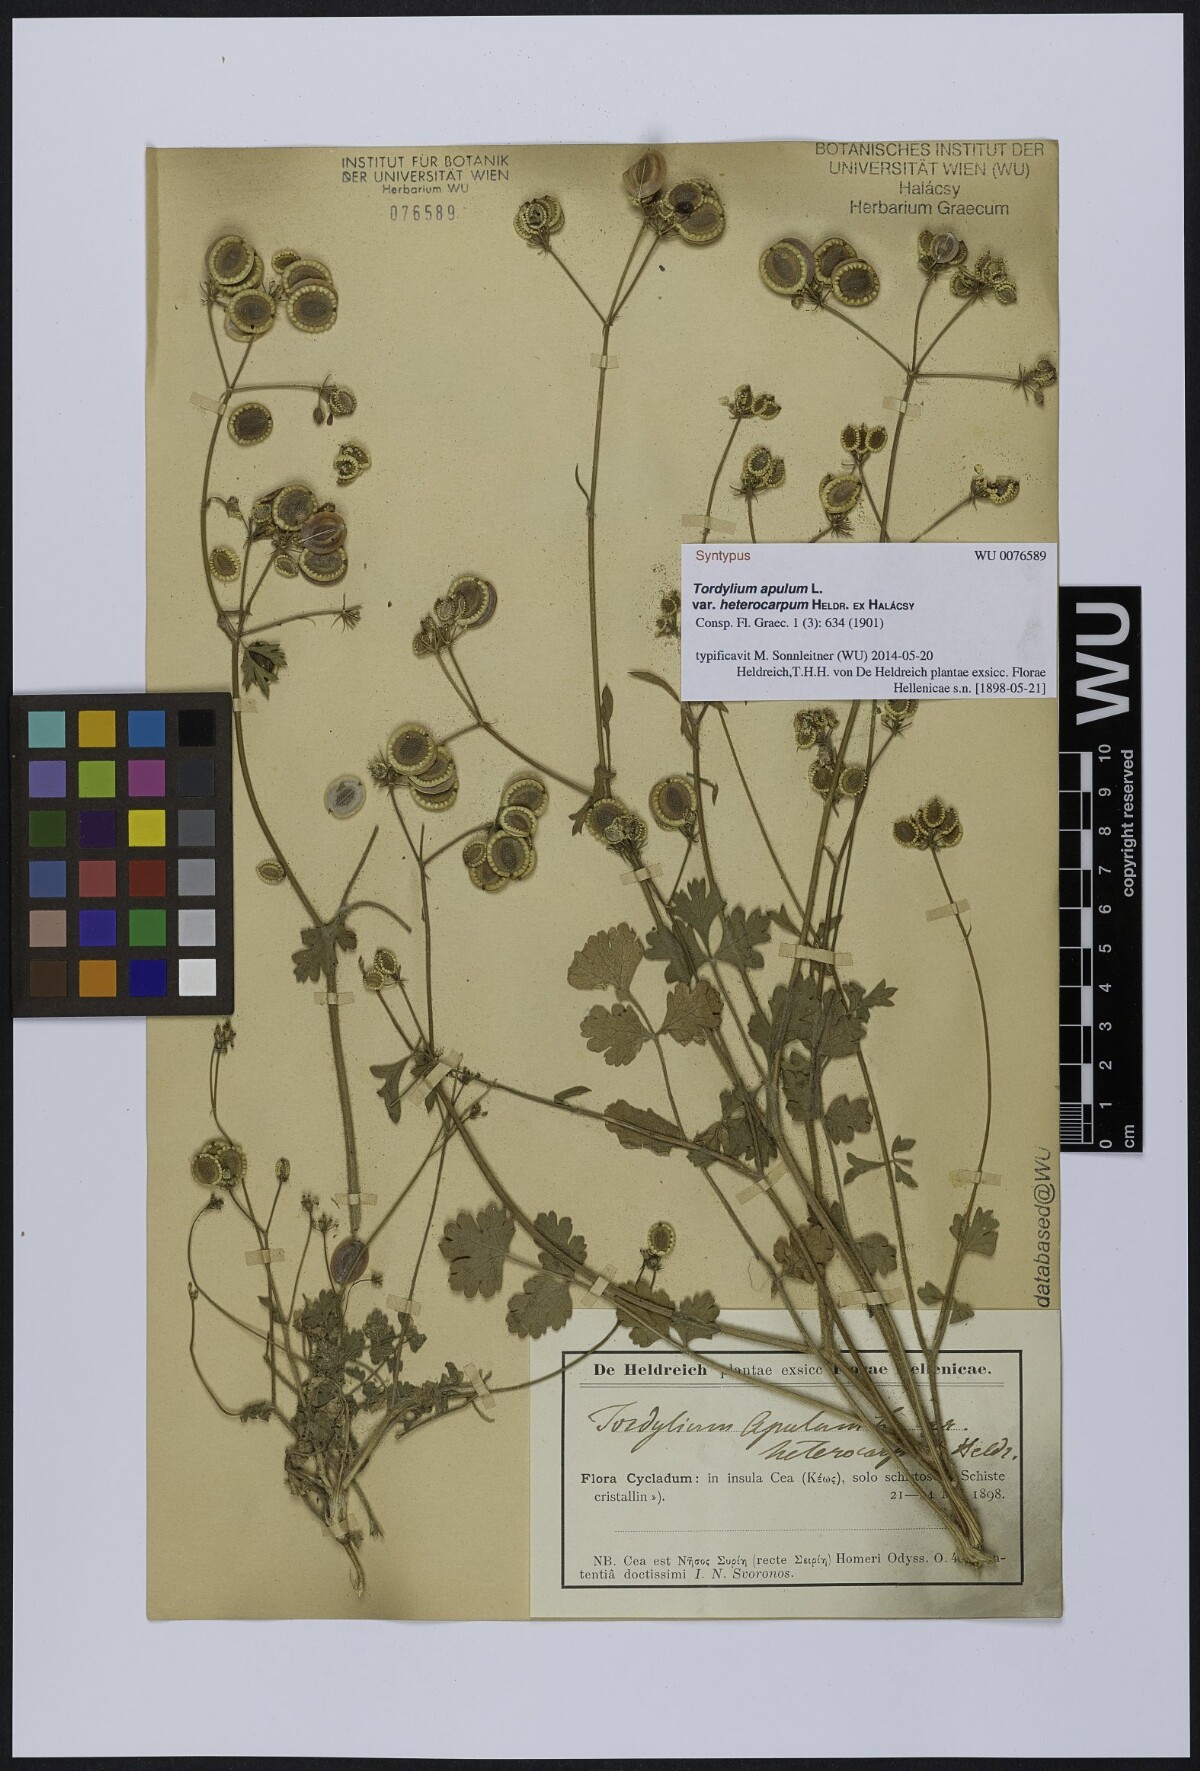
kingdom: Plantae
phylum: Tracheophyta
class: Magnoliopsida
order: Apiales
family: Apiaceae
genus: Tordylium
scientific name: Tordylium apulum
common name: Mediterranean hartwort
